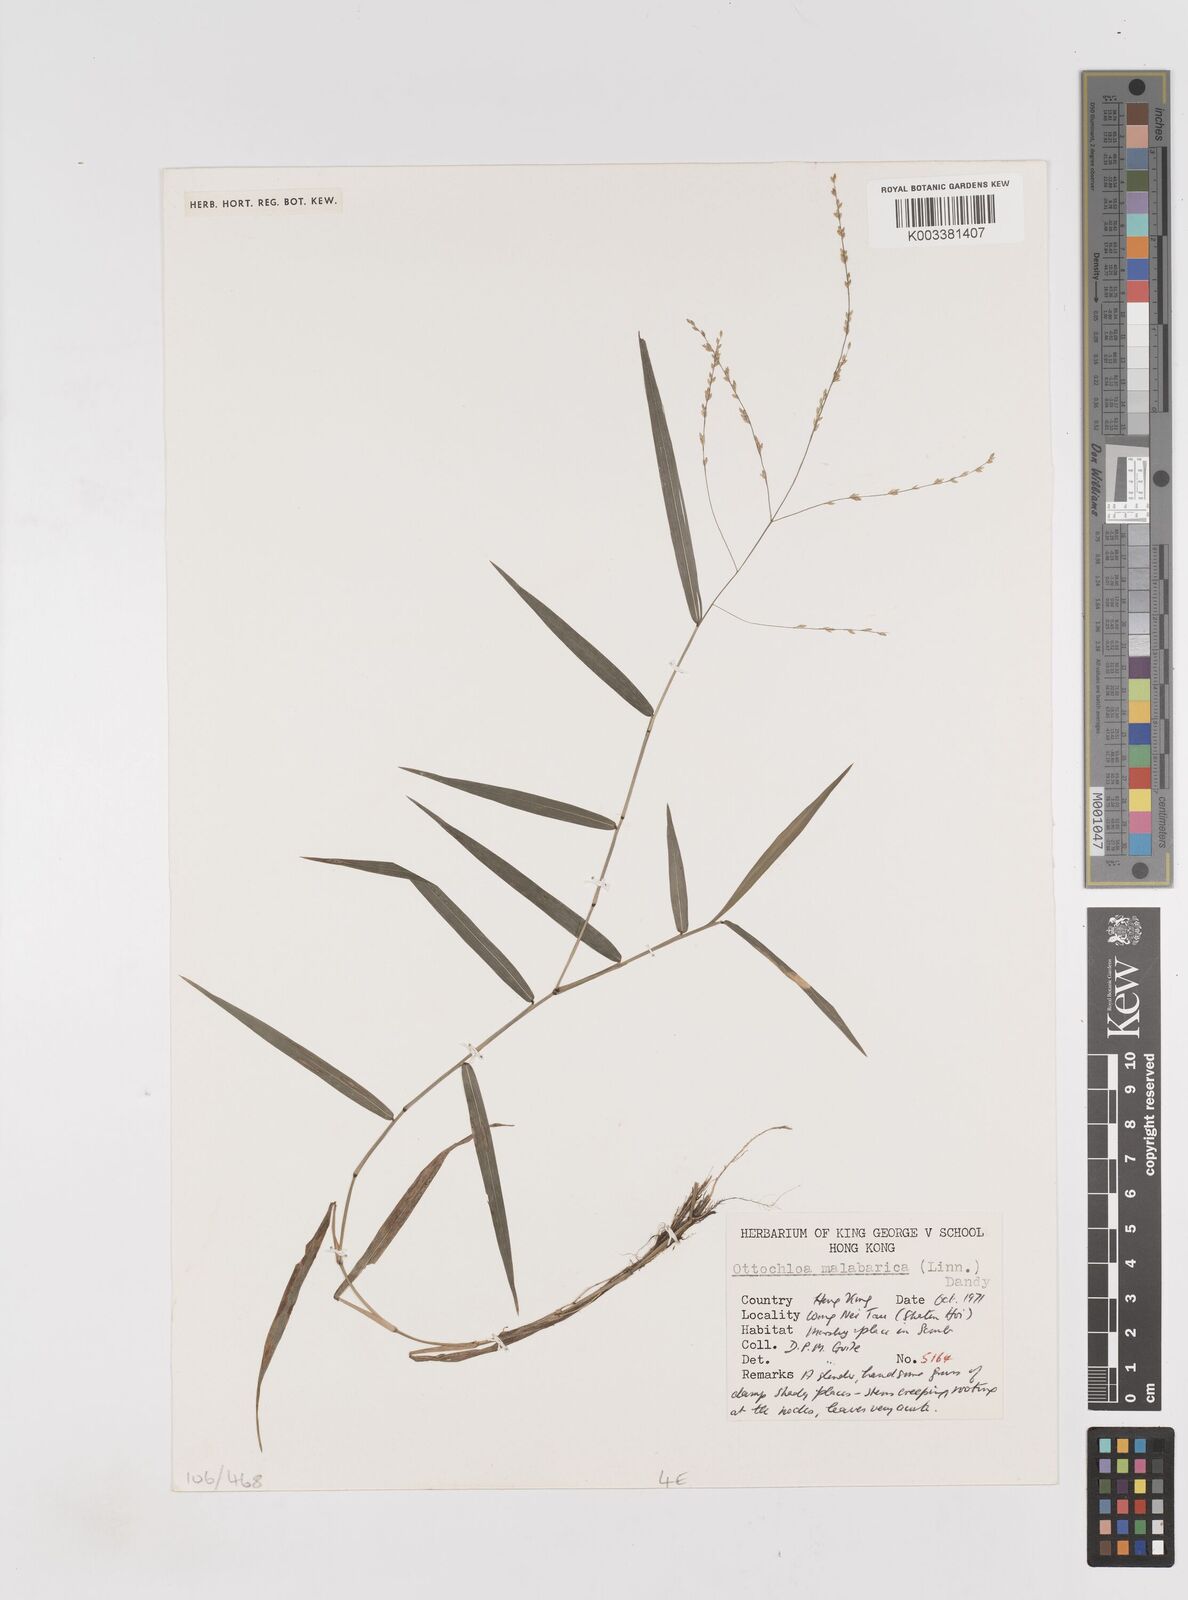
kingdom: Plantae
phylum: Tracheophyta
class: Liliopsida
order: Poales
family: Poaceae
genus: Ottochloa
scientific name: Ottochloa nodosa
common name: Slender-panic grass
